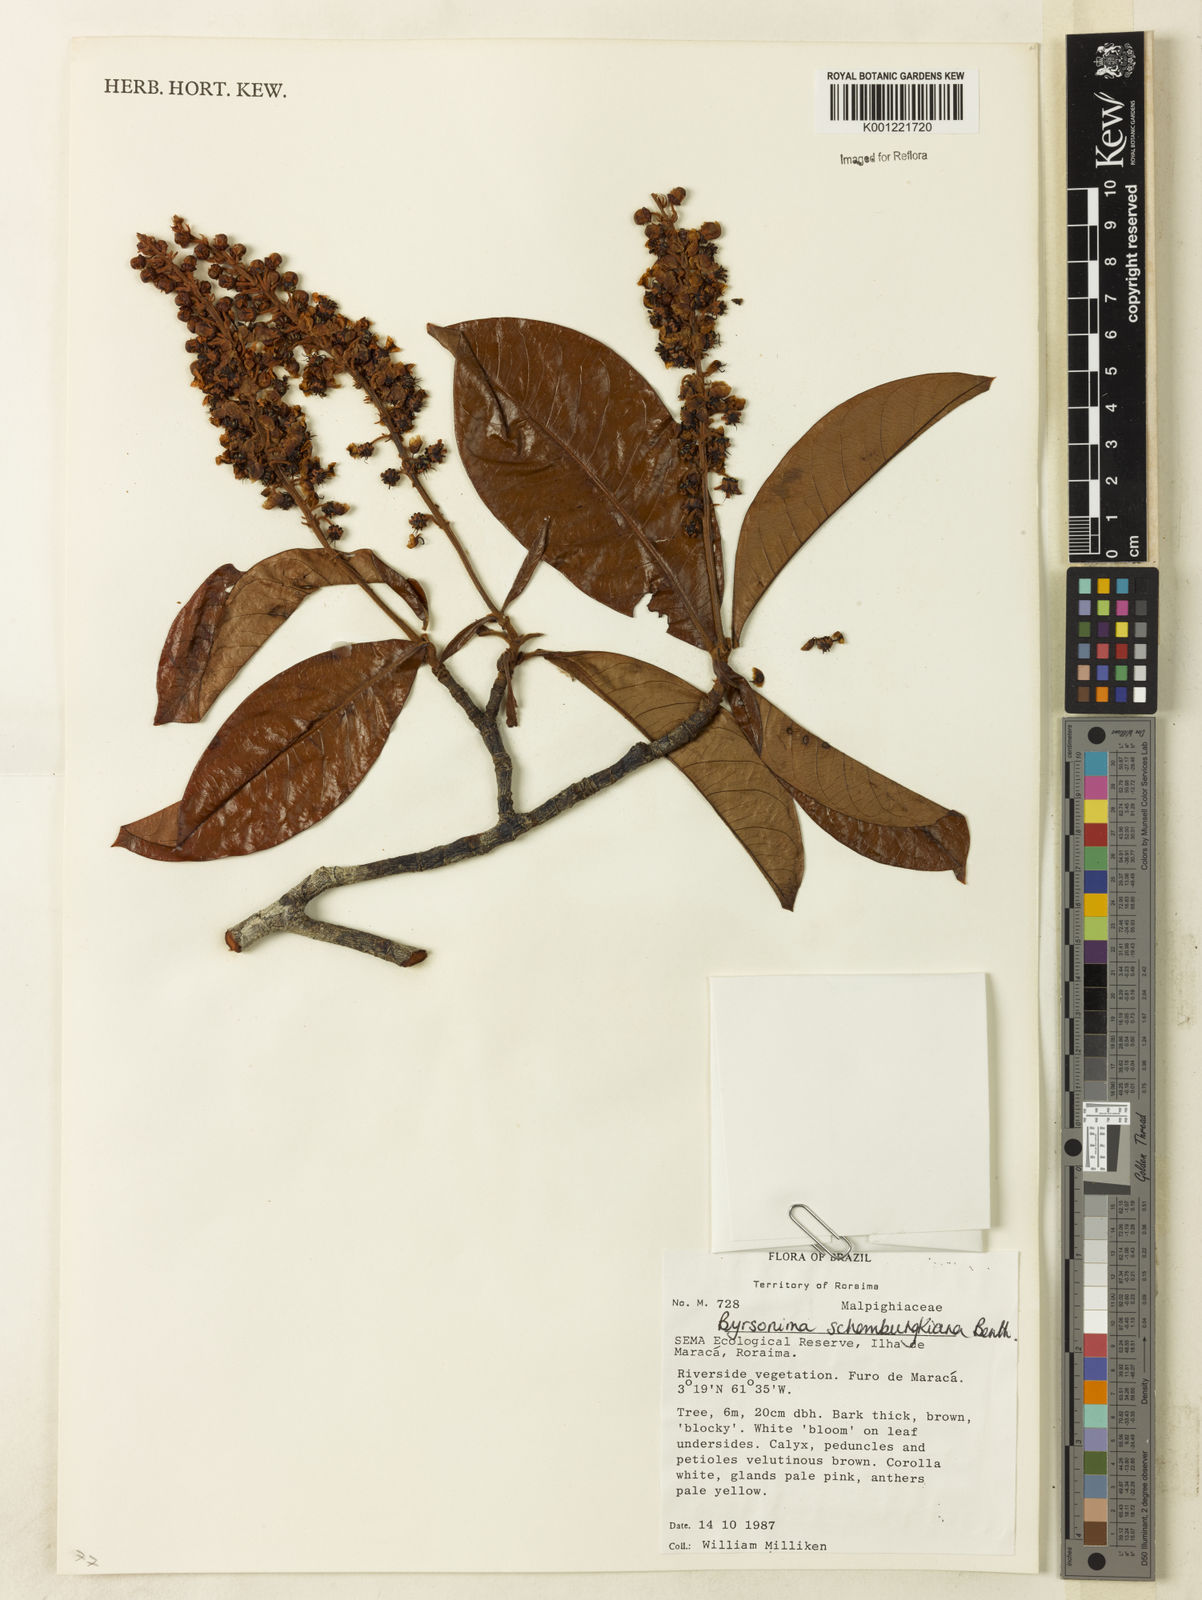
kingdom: Plantae
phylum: Tracheophyta
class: Magnoliopsida
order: Malpighiales
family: Malpighiaceae
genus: Byrsonima
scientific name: Byrsonima schomburgkiana
